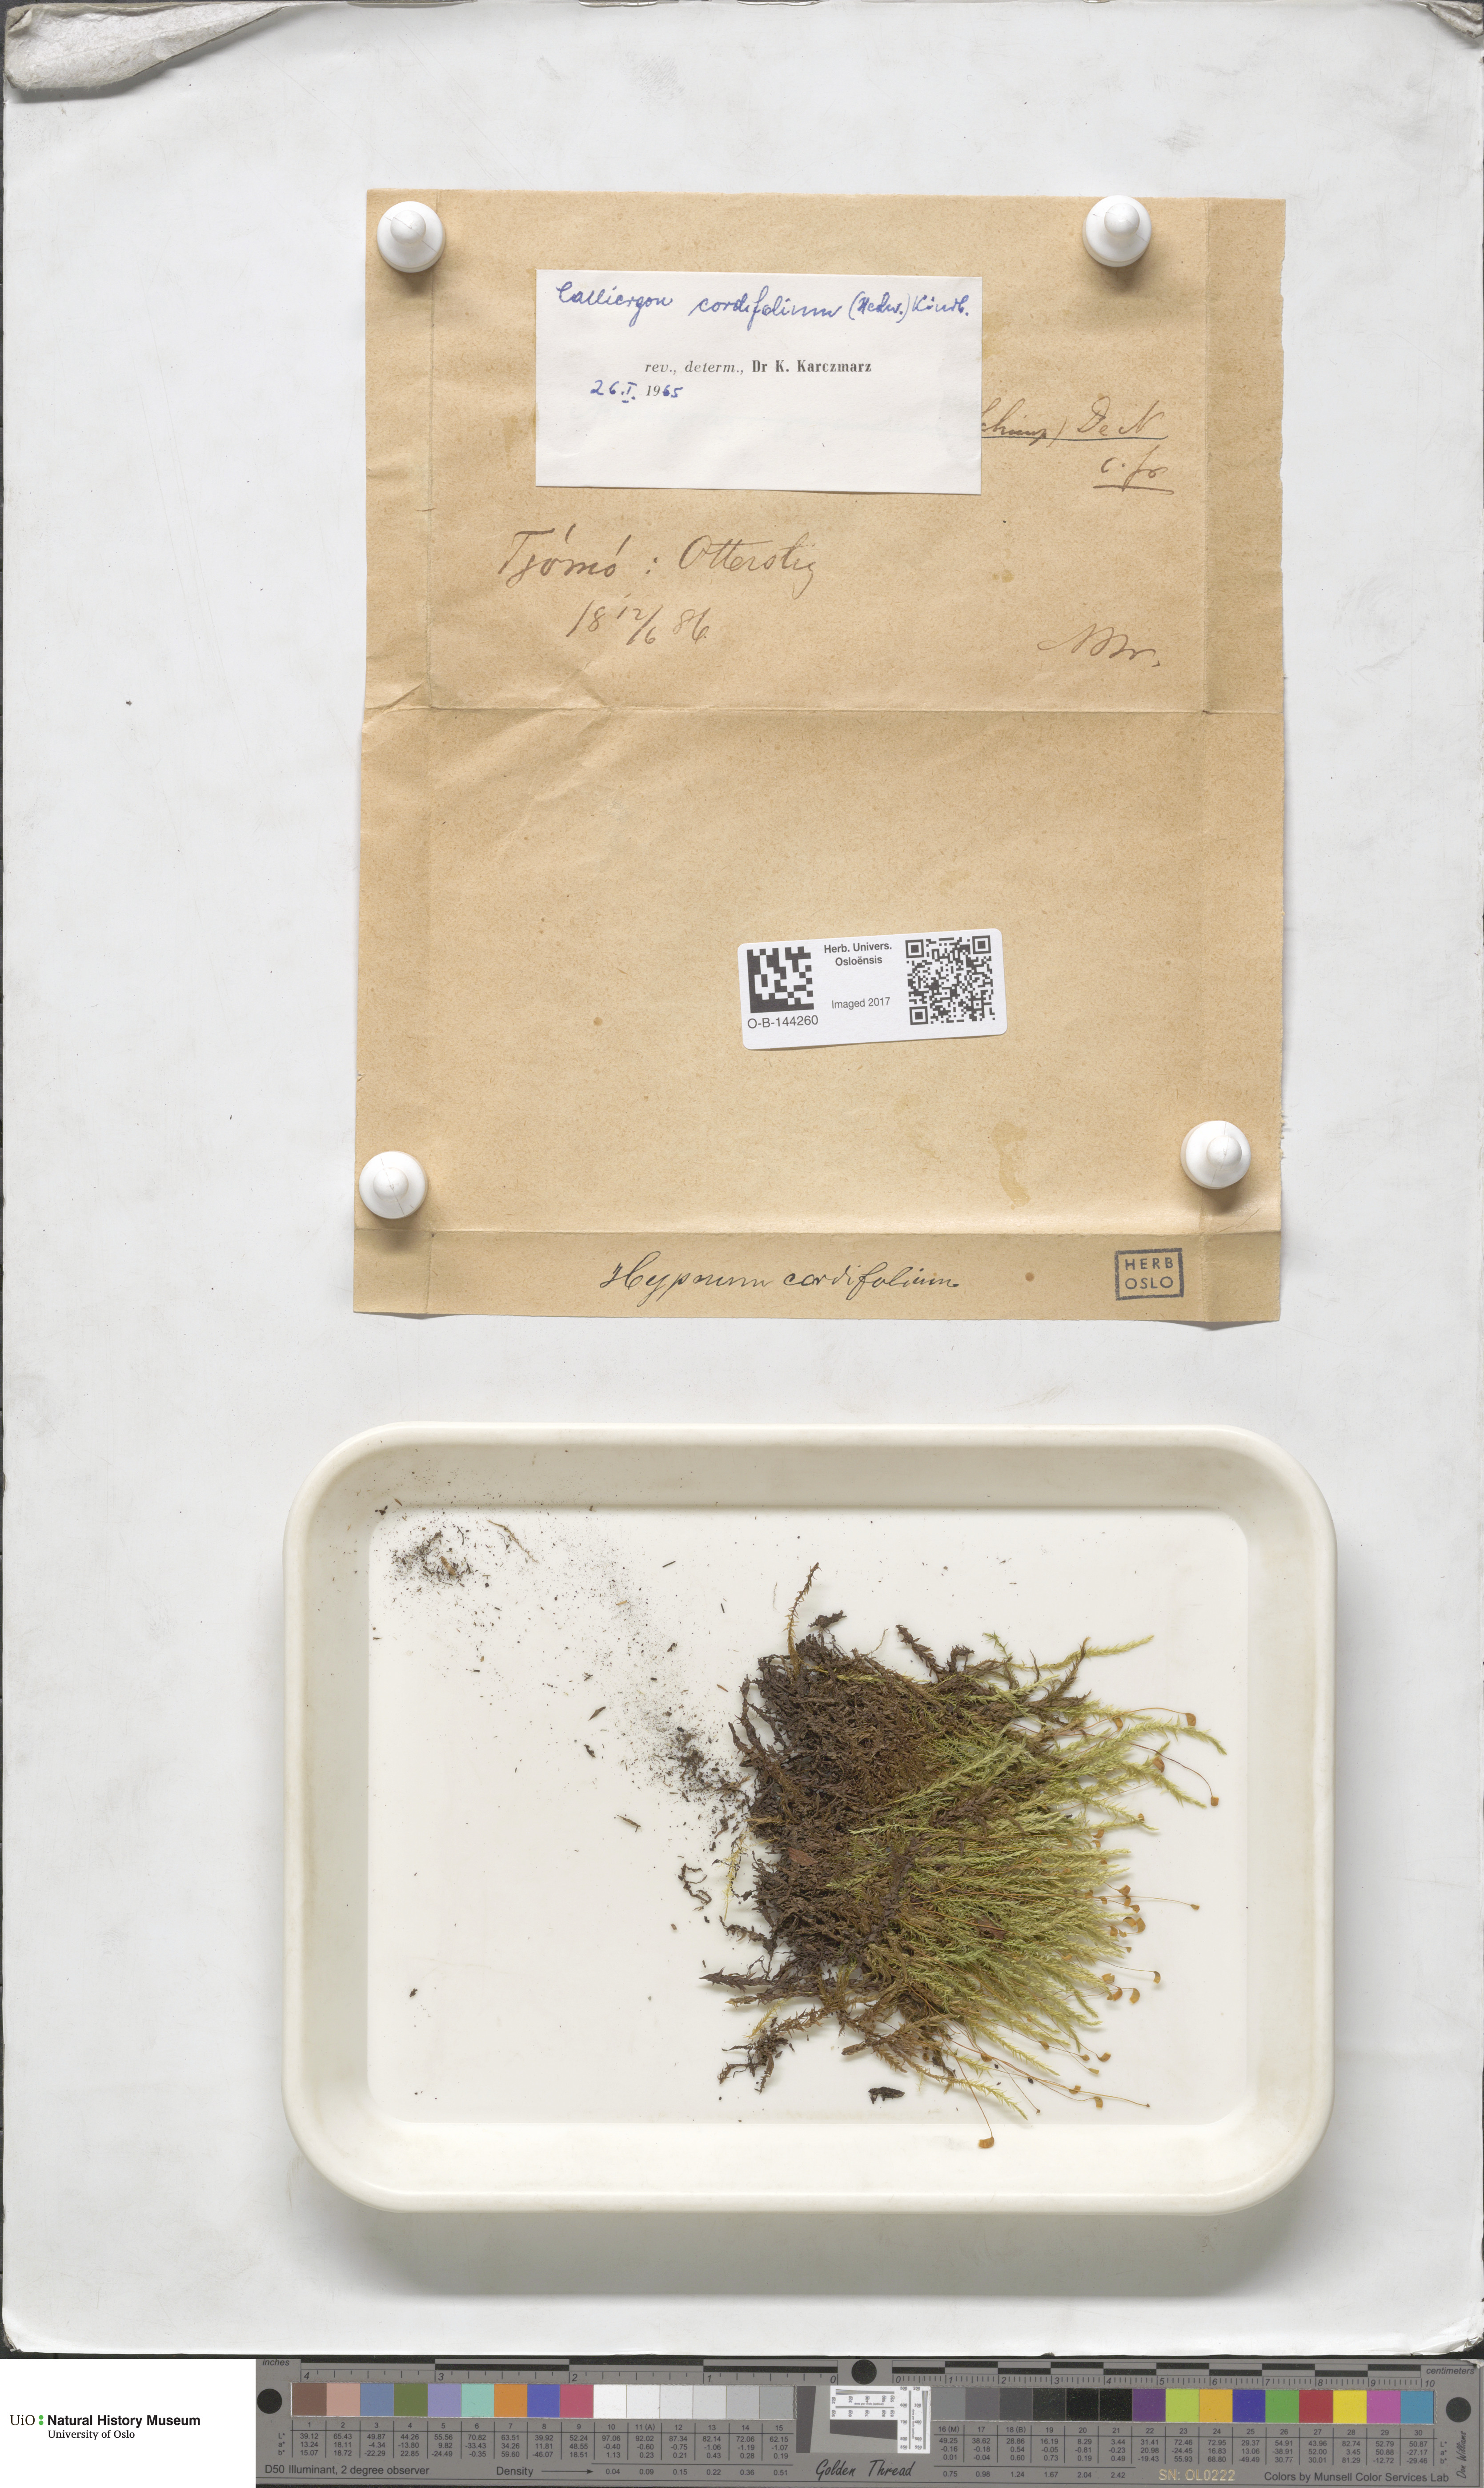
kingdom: Plantae
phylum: Bryophyta
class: Bryopsida
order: Hypnales
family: Calliergonaceae
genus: Calliergon
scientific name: Calliergon cordifolium
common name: Heart-leaved spear moss
